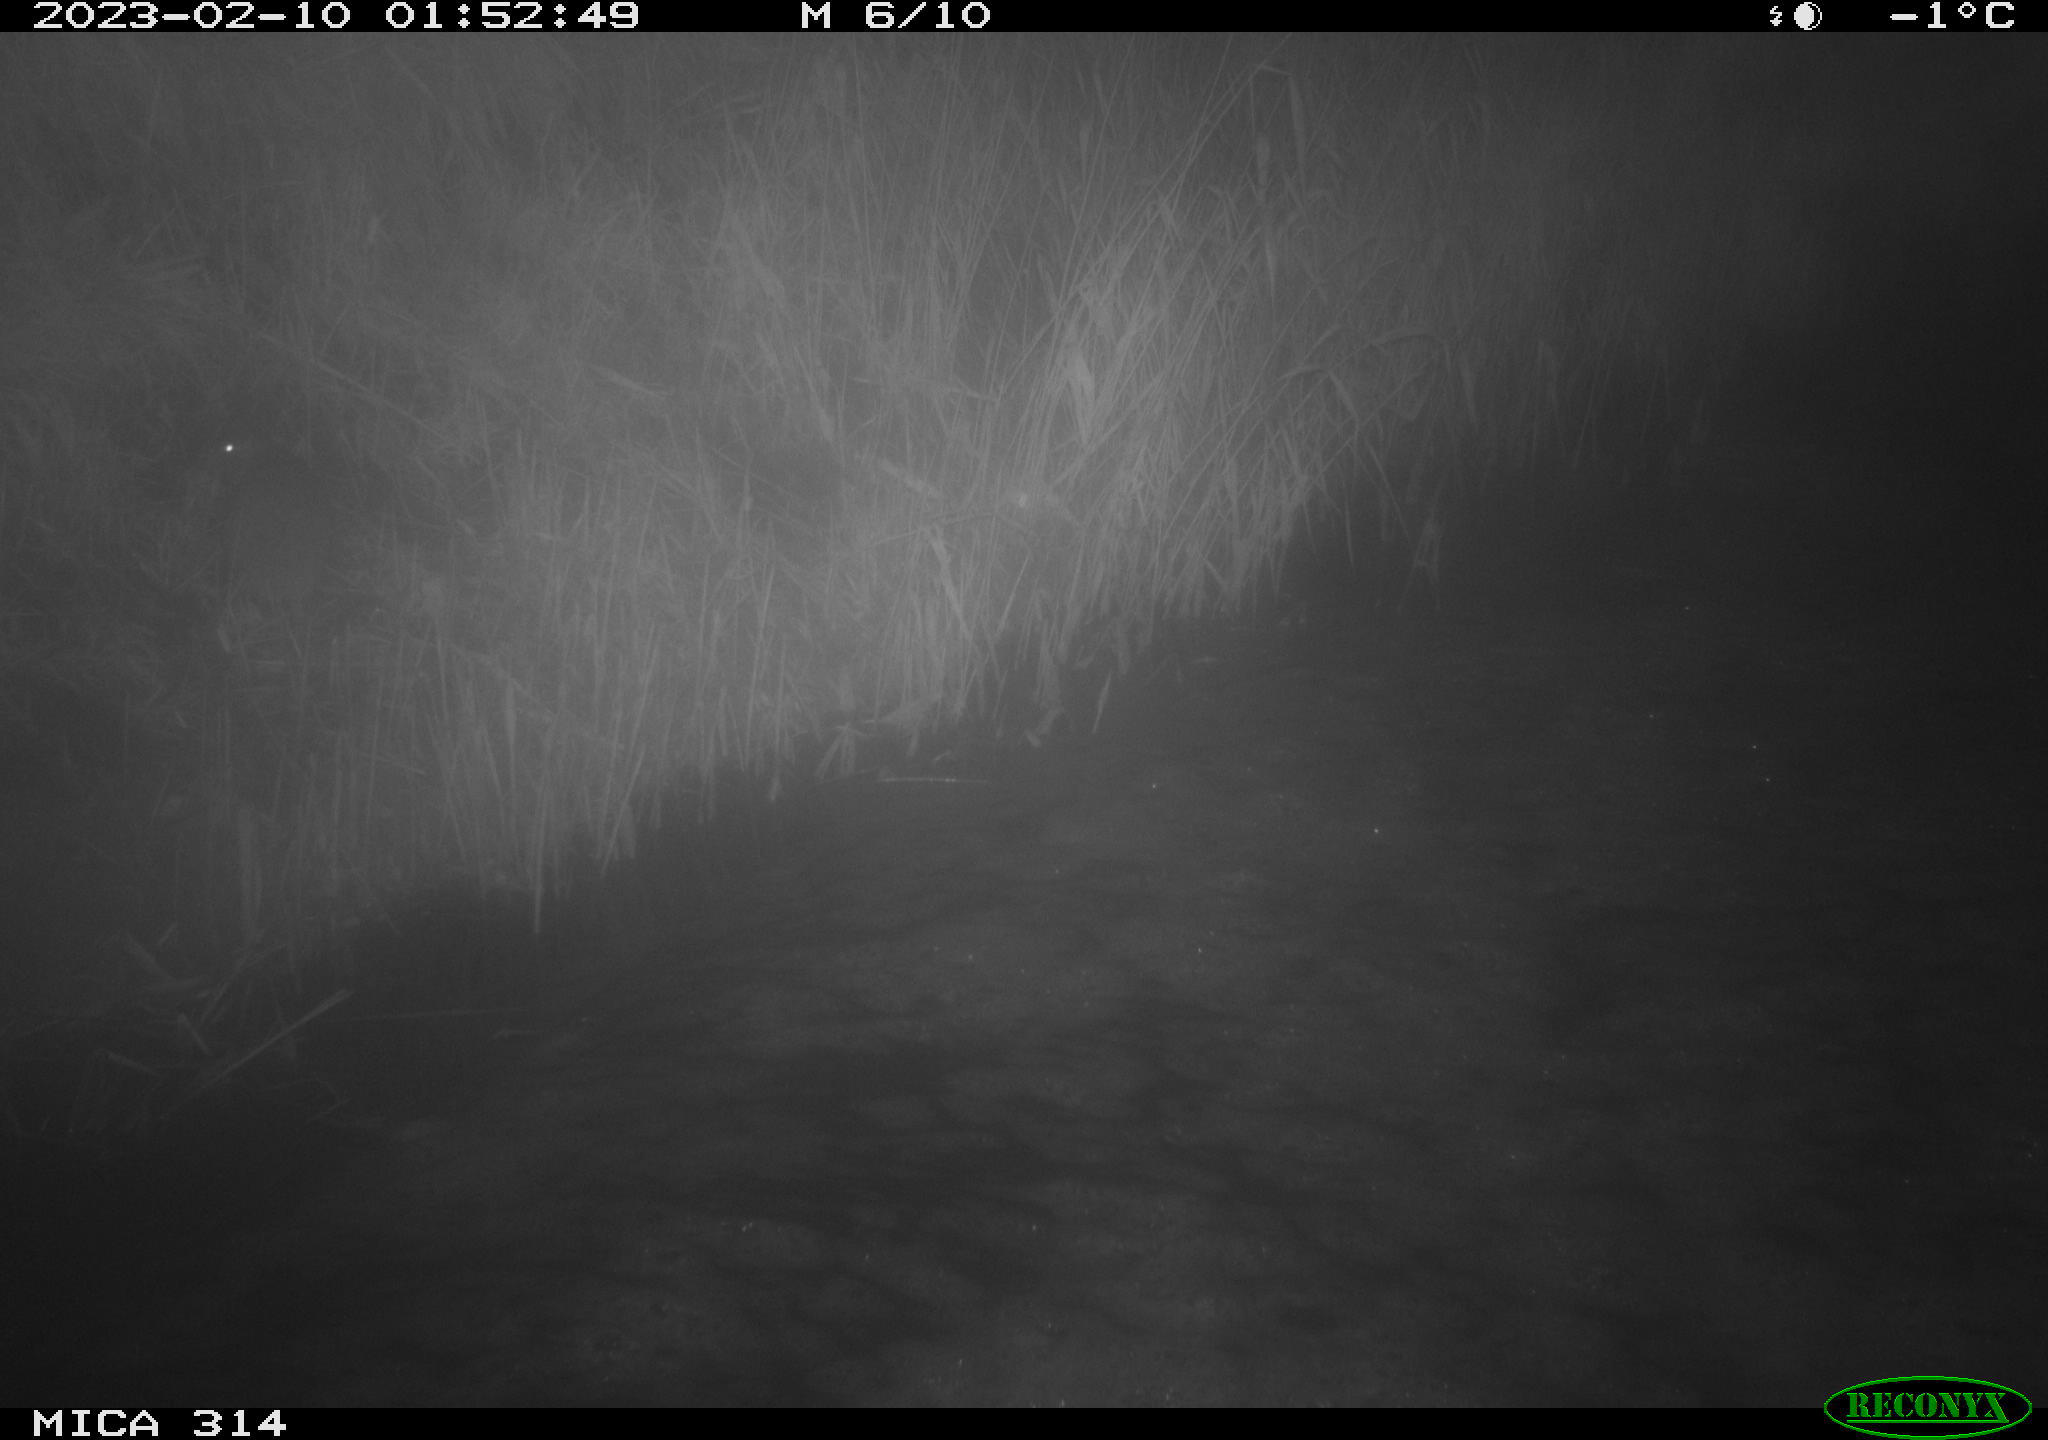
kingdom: Animalia
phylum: Chordata
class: Mammalia
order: Rodentia
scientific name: Rodentia
